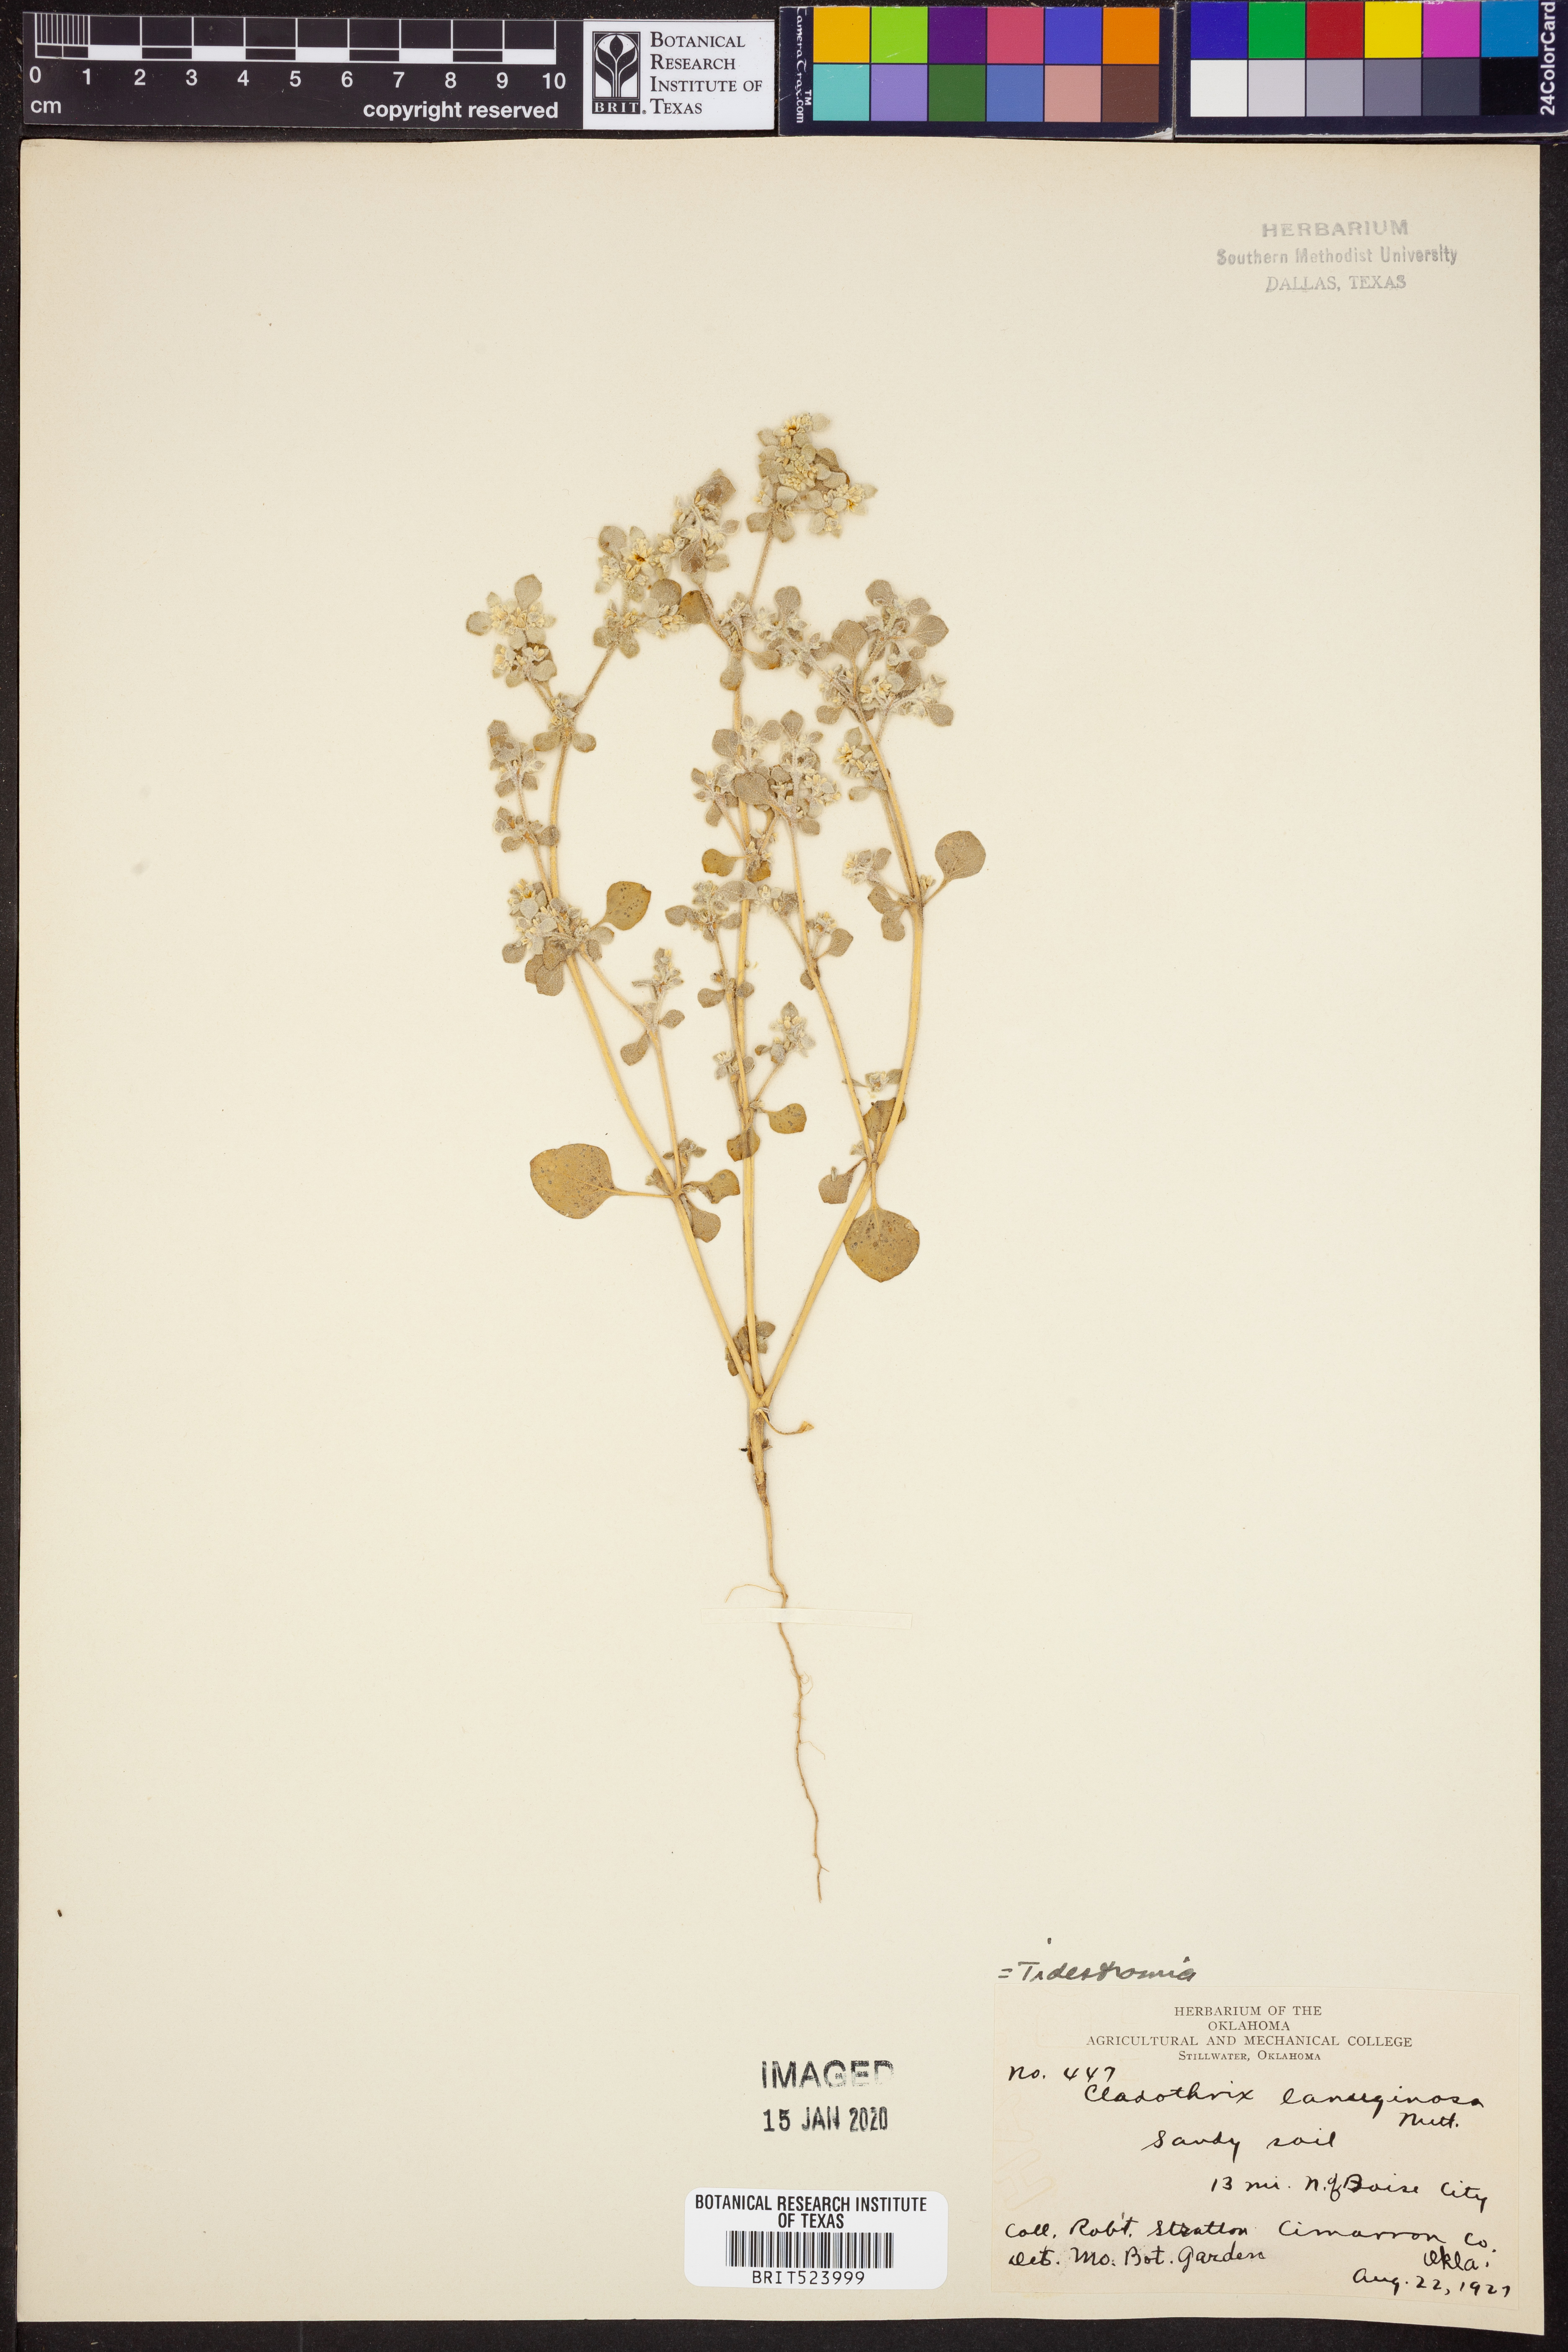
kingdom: Plantae
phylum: Tracheophyta
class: Magnoliopsida
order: Caryophyllales
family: Amaranthaceae
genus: Tidestromia
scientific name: Tidestromia lanuginosa
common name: Woolly tidestromia
